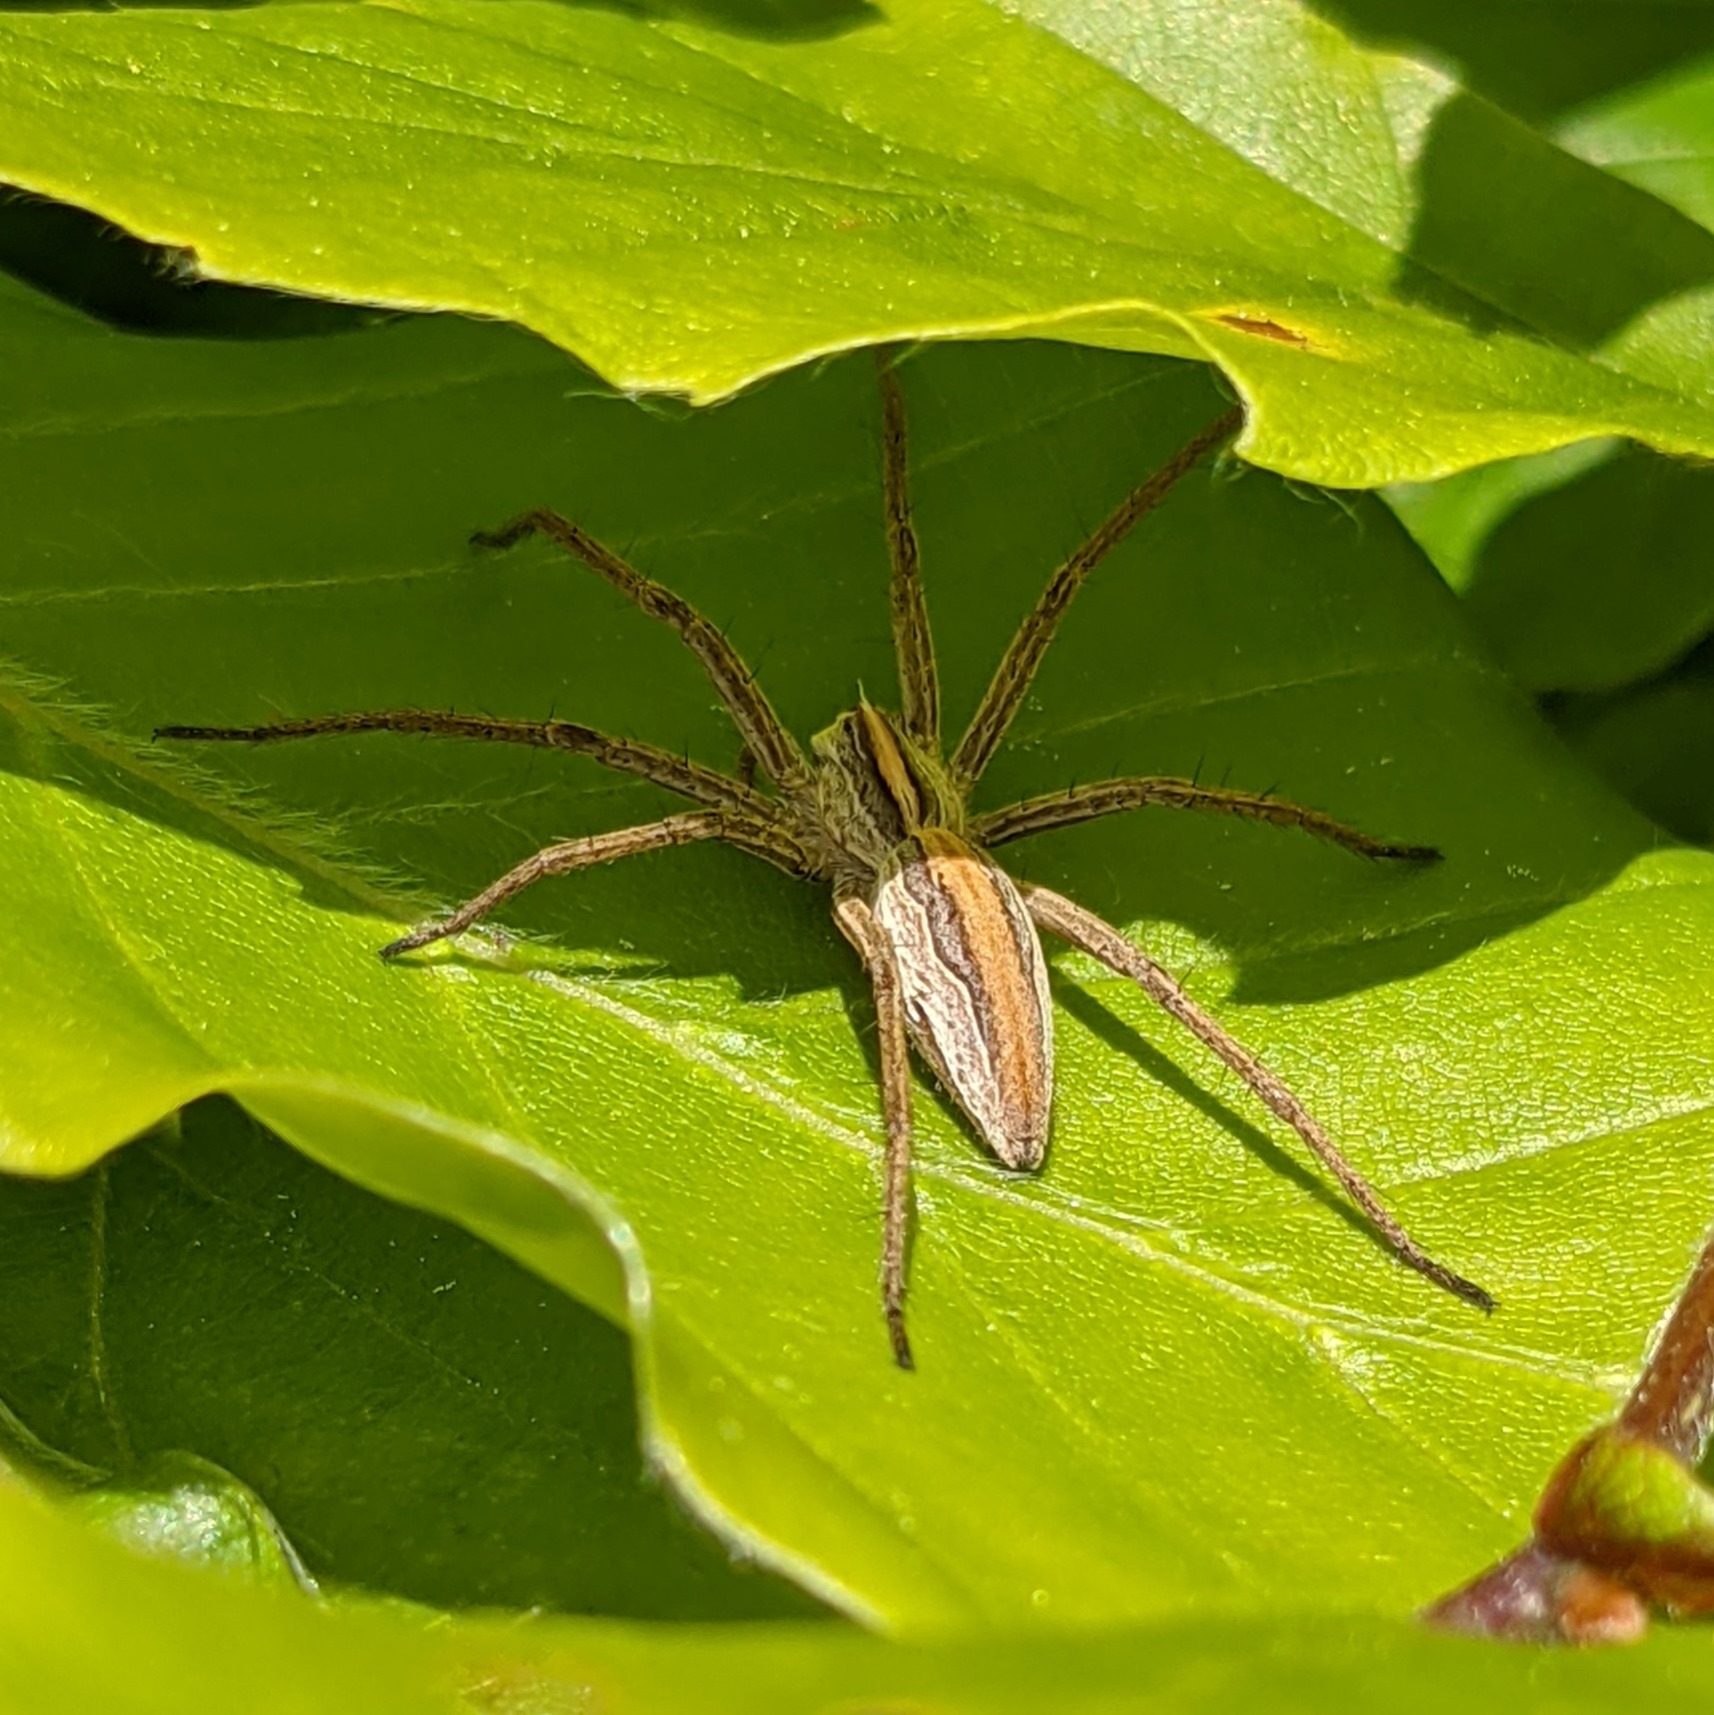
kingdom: Animalia
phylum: Arthropoda
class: Arachnida
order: Araneae
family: Pisauridae
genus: Pisaura
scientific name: Pisaura mirabilis
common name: Almindelig rovedderkop
